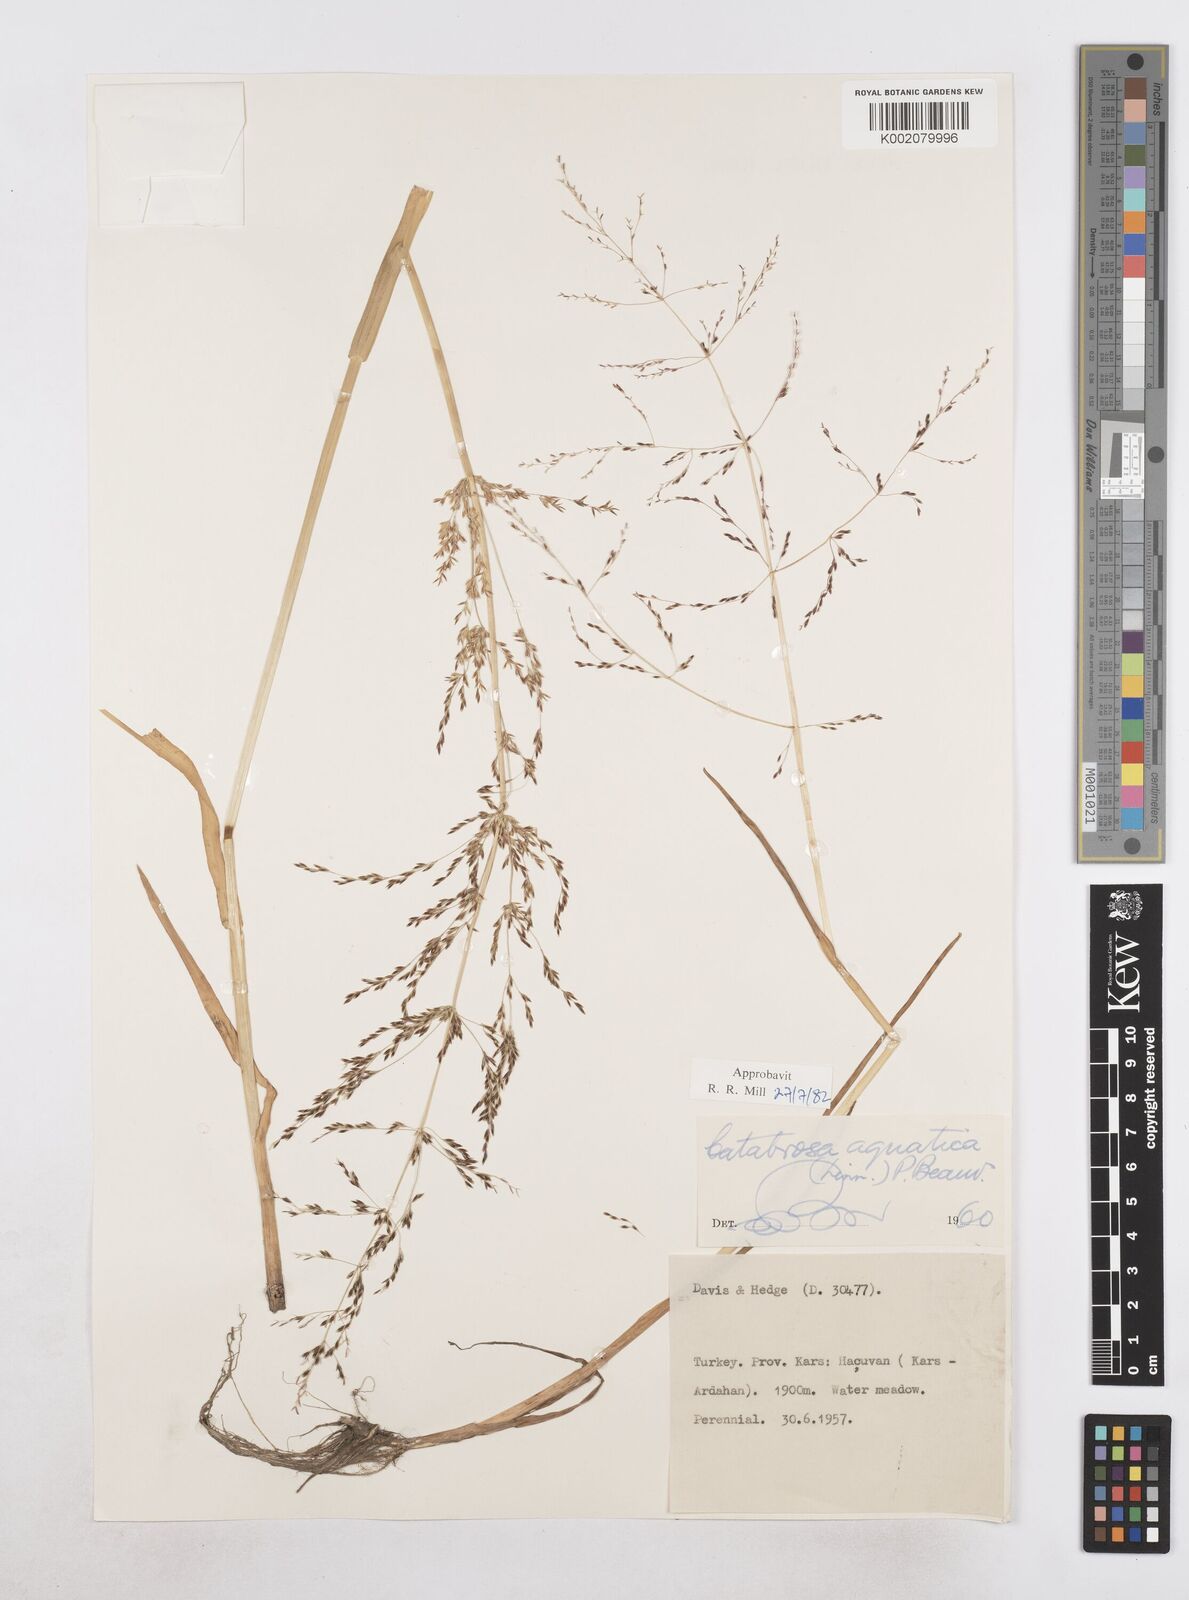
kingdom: Plantae
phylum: Tracheophyta
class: Liliopsida
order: Poales
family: Poaceae
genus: Catabrosa
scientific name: Catabrosa aquatica
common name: Whorl-grass
